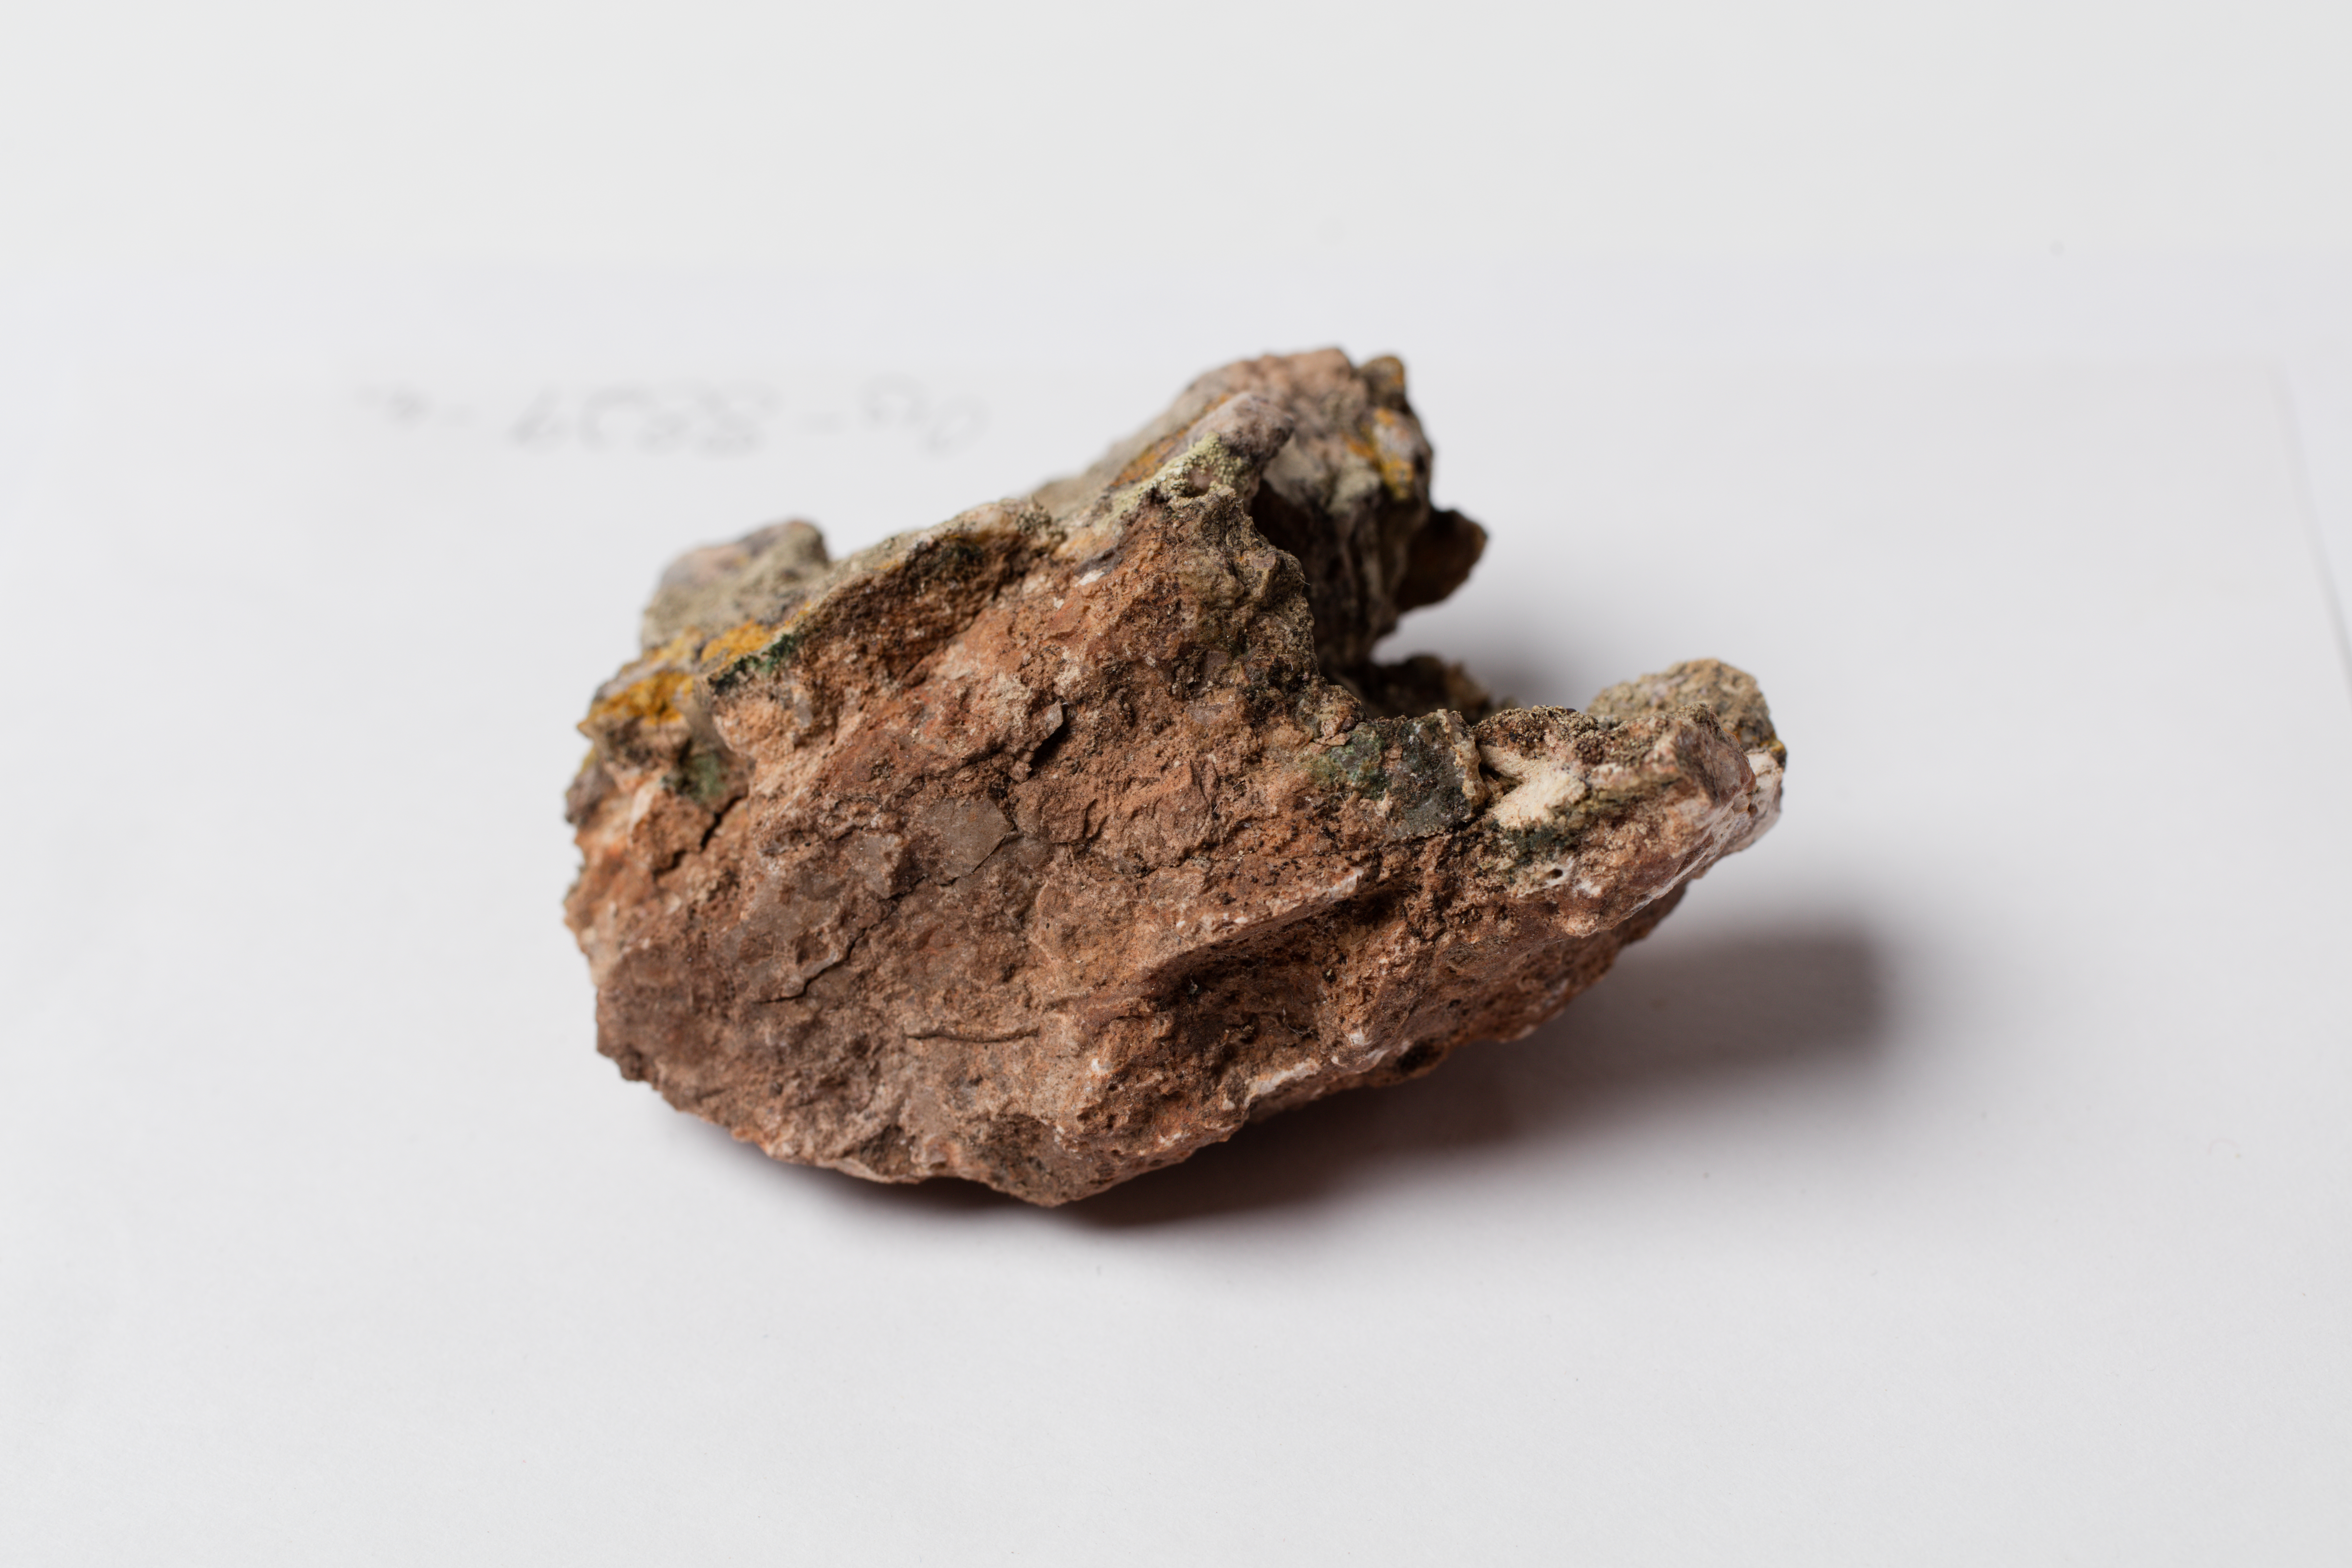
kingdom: Fungi
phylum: Ascomycota
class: Lecanoromycetes
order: Lecanorales
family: Lecanoraceae
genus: Lecanora
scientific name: Lecanora arafurensis
